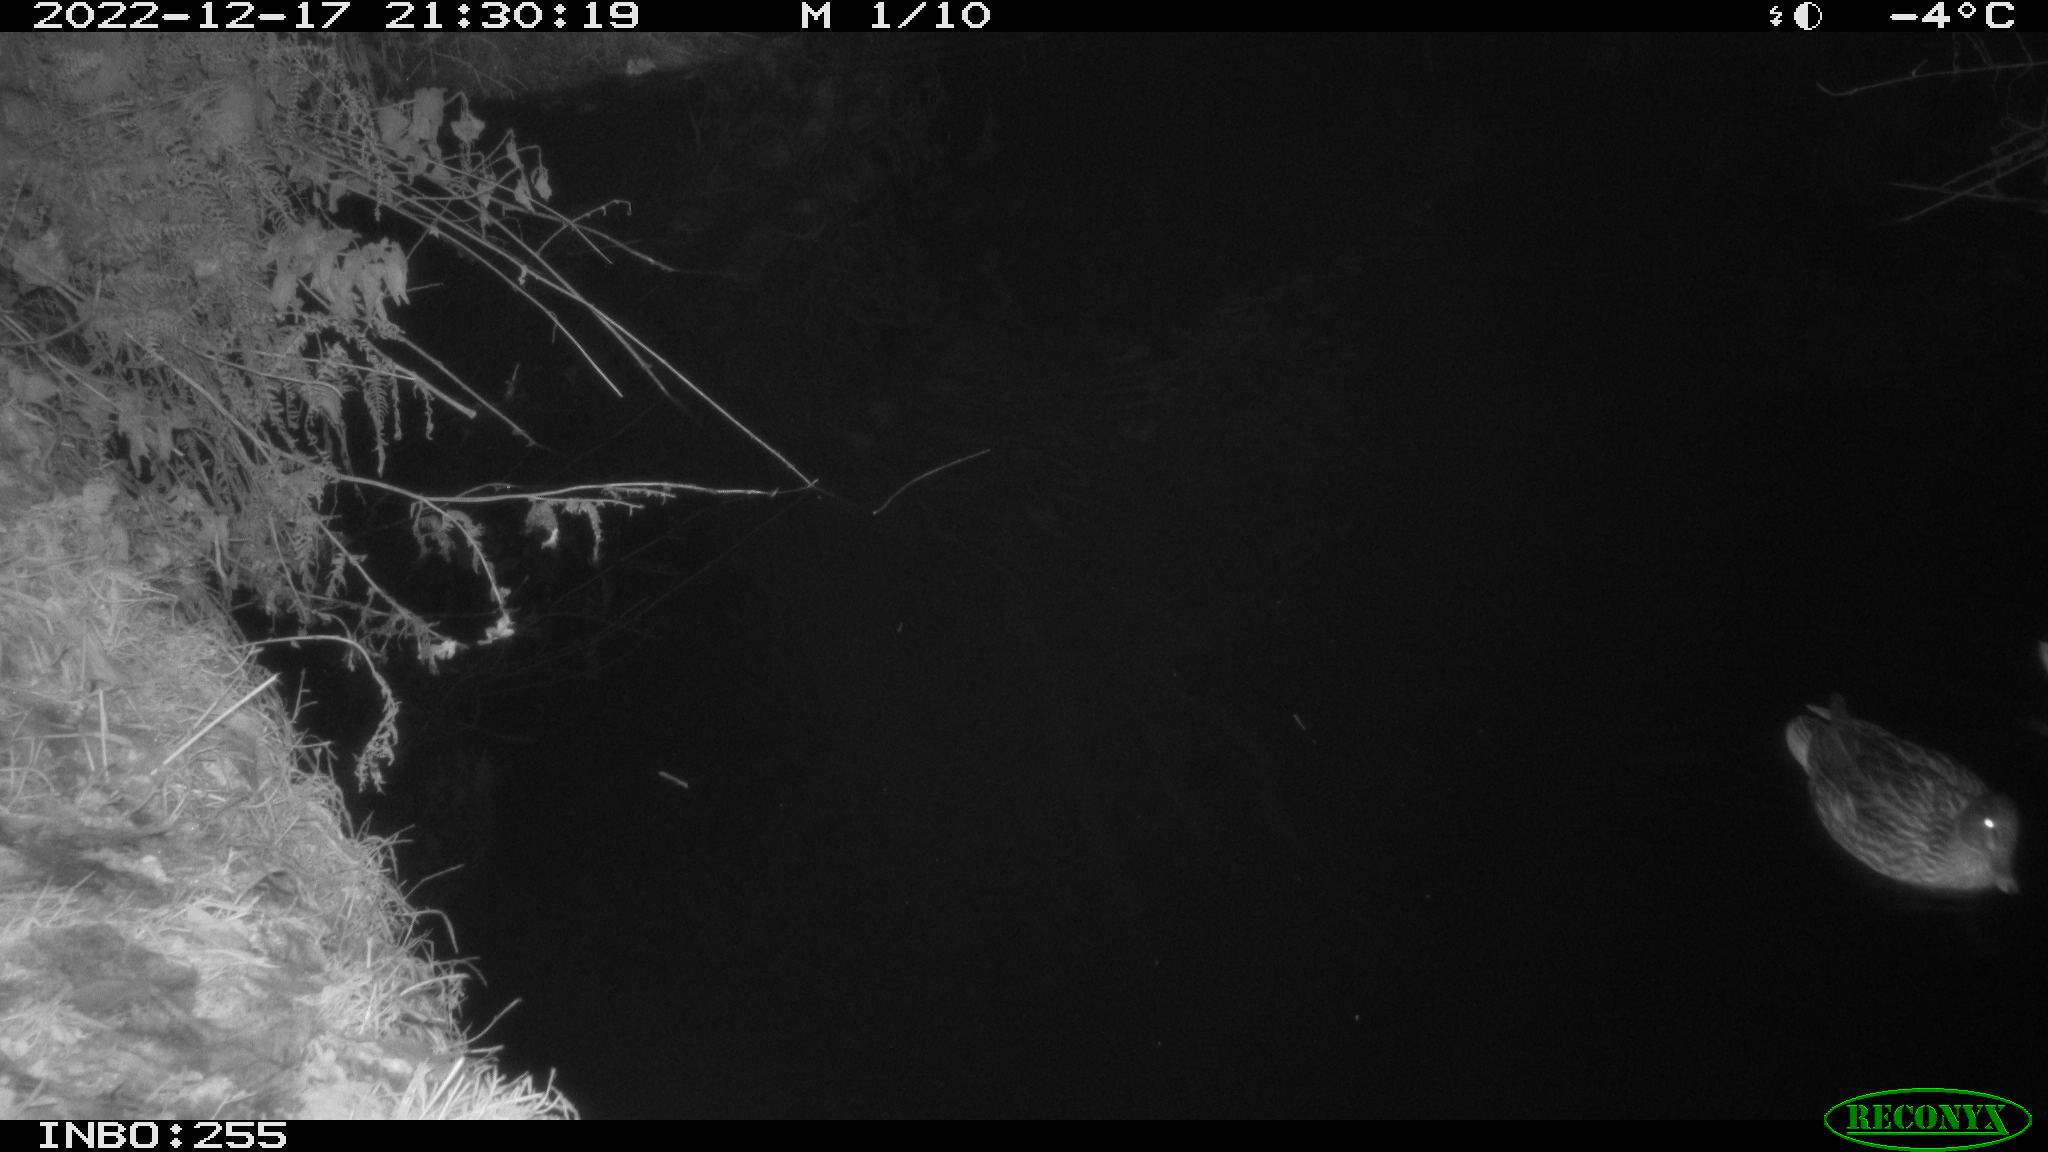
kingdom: Animalia
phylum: Chordata
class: Aves
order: Anseriformes
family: Anatidae
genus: Anas
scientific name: Anas
